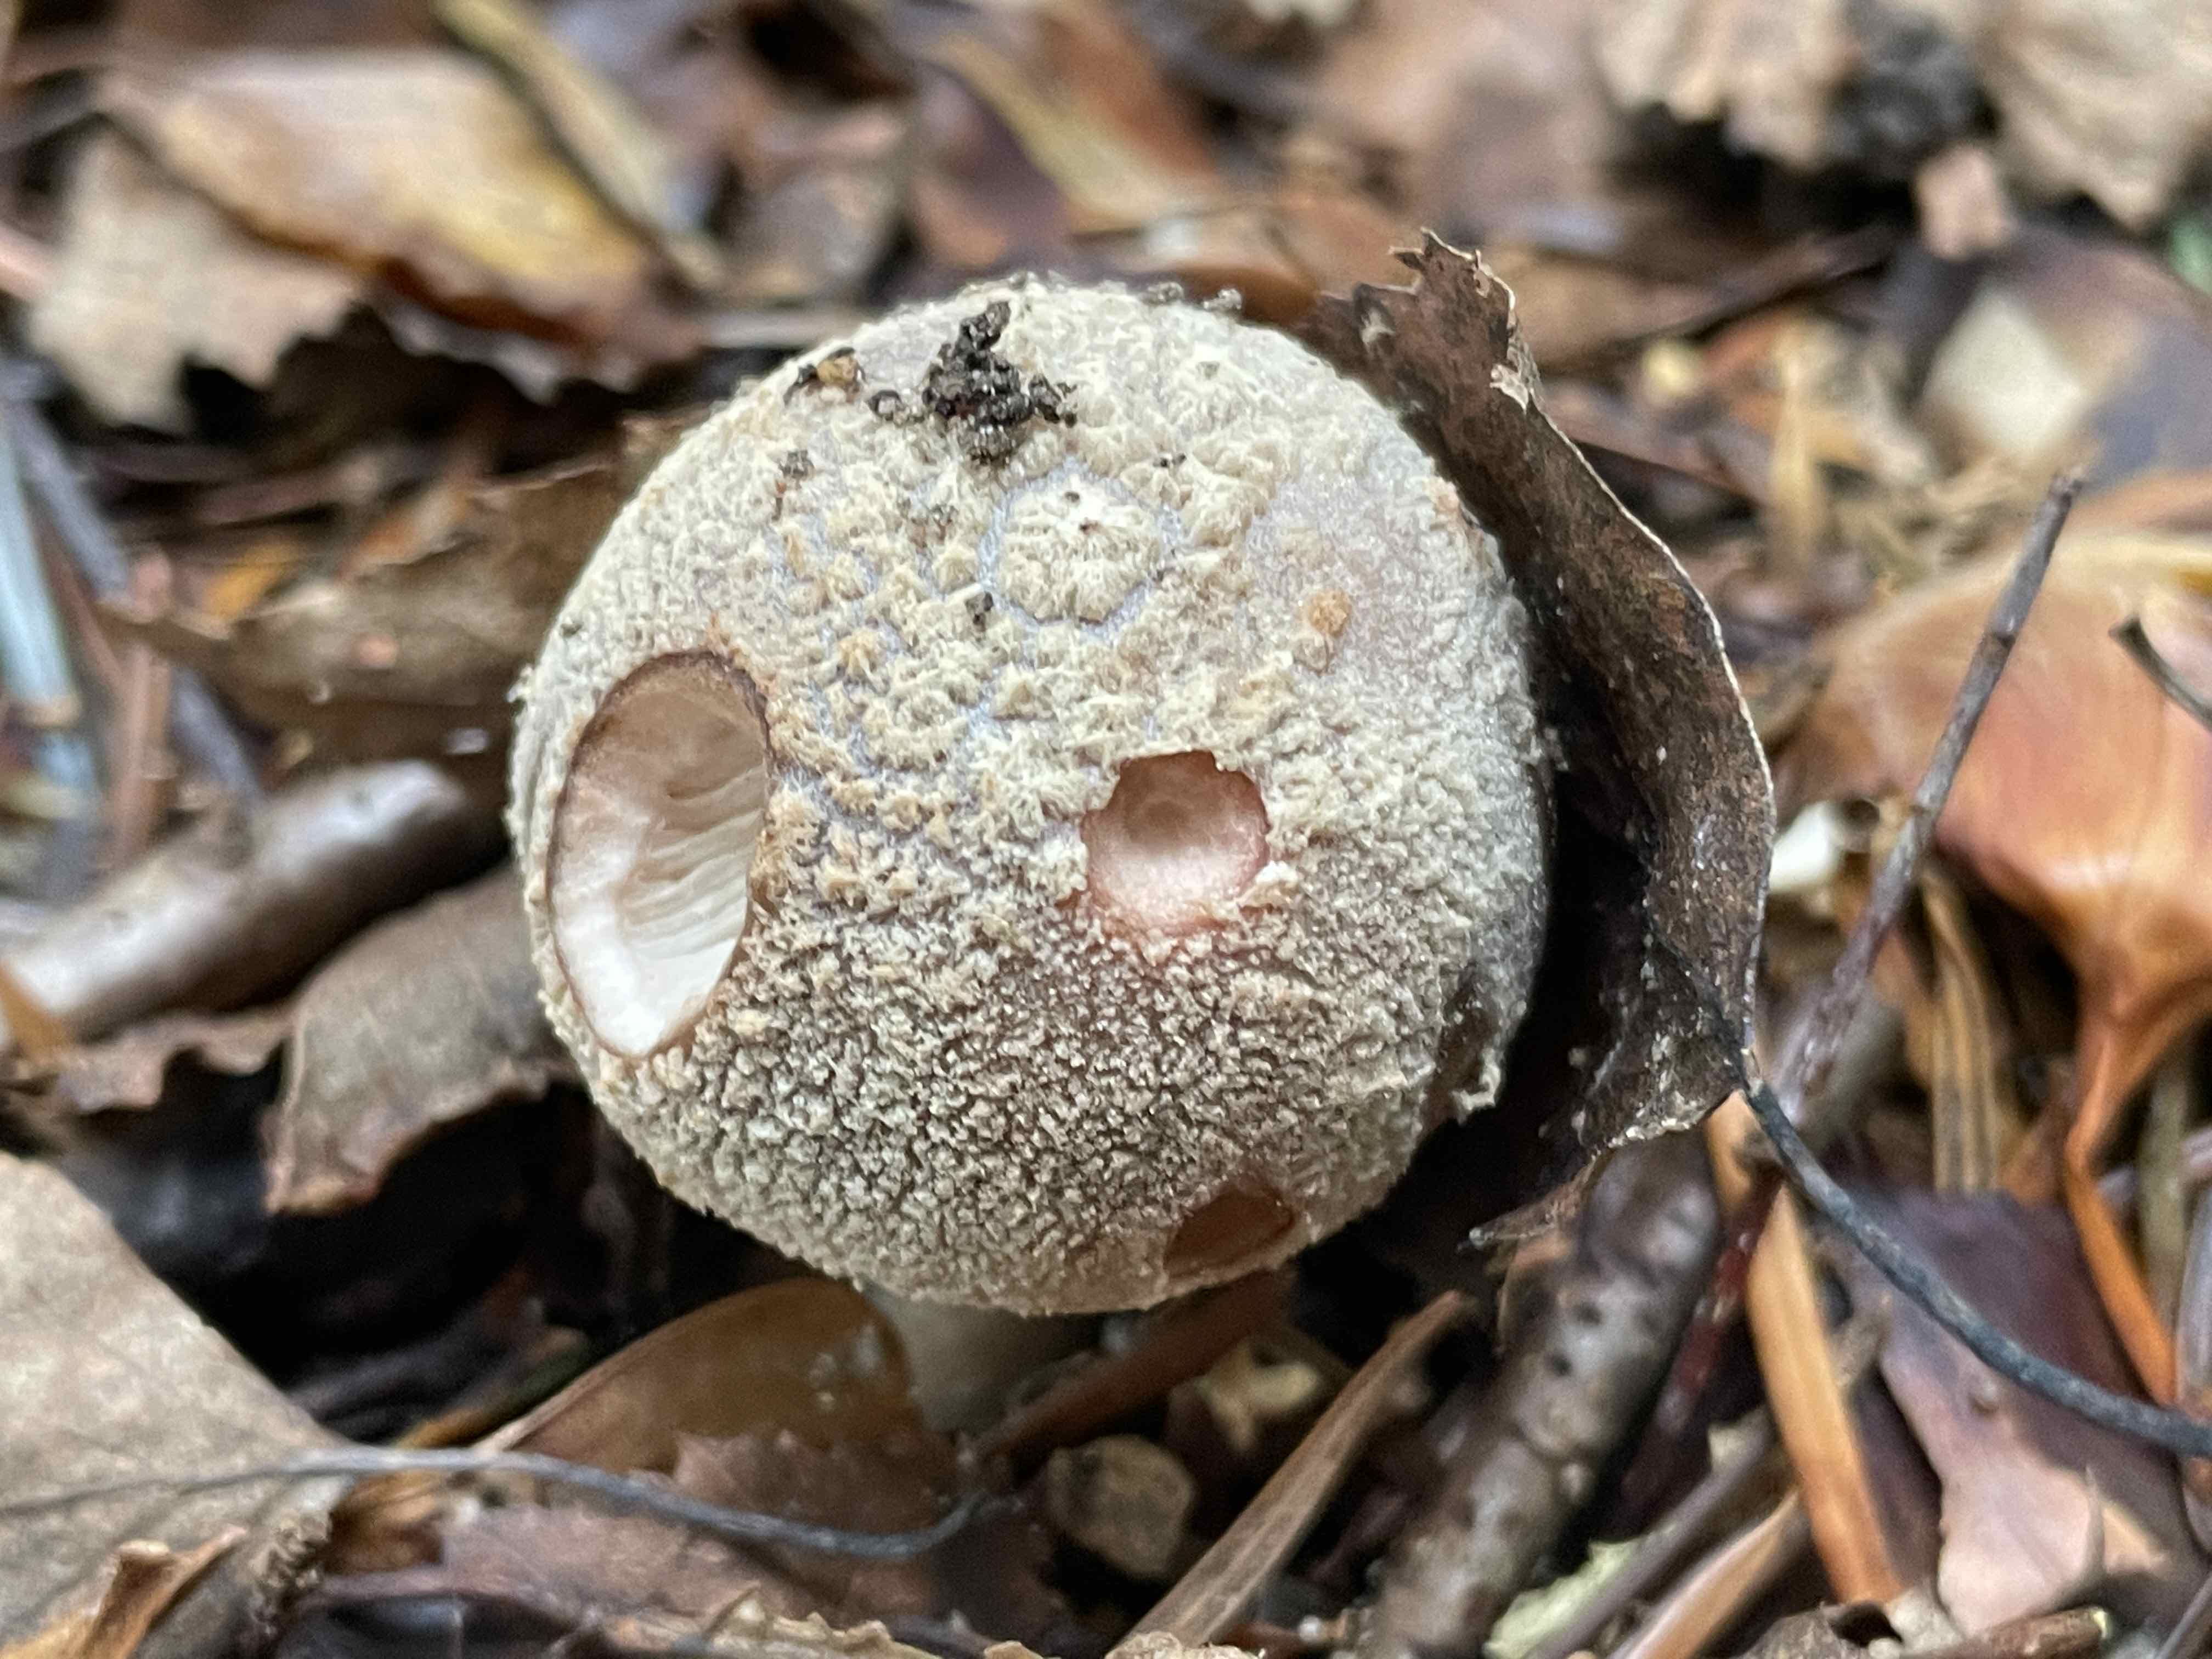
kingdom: Fungi
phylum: Basidiomycota
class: Agaricomycetes
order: Agaricales
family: Amanitaceae
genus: Amanita
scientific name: Amanita rubescens
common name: rødmende fluesvamp
